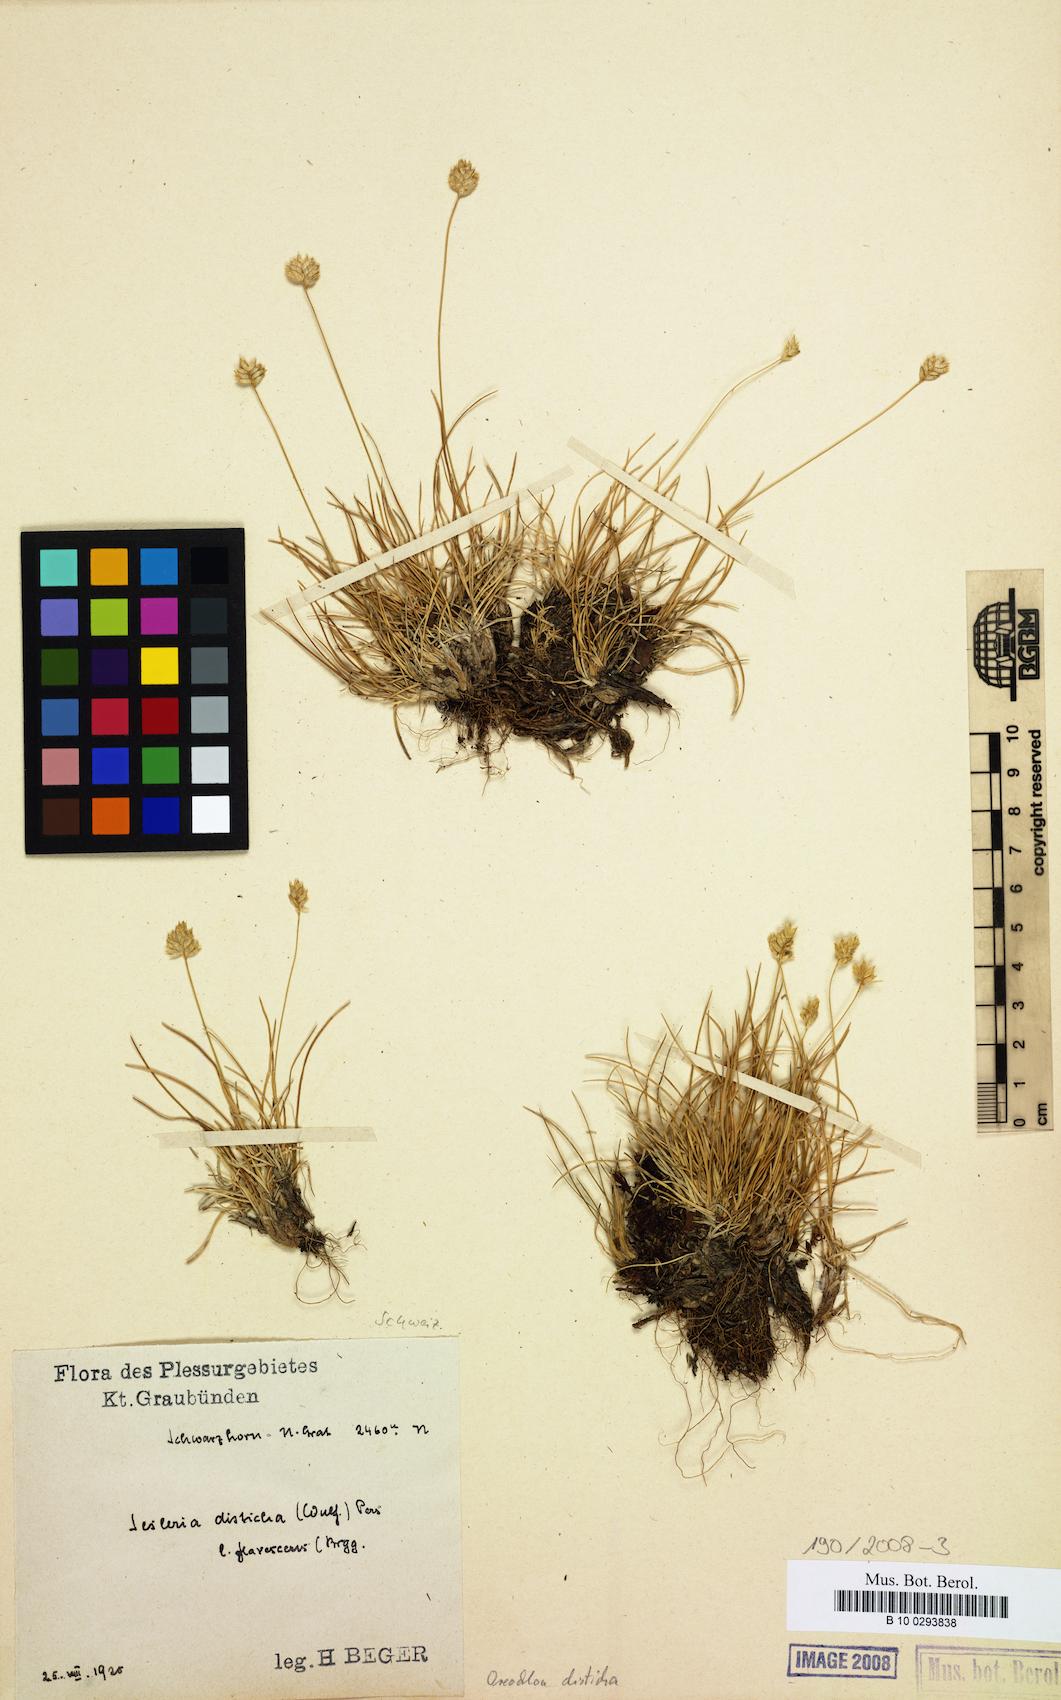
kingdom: Plantae
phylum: Tracheophyta
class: Liliopsida
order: Poales
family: Poaceae
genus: Oreochloa
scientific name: Oreochloa disticha
